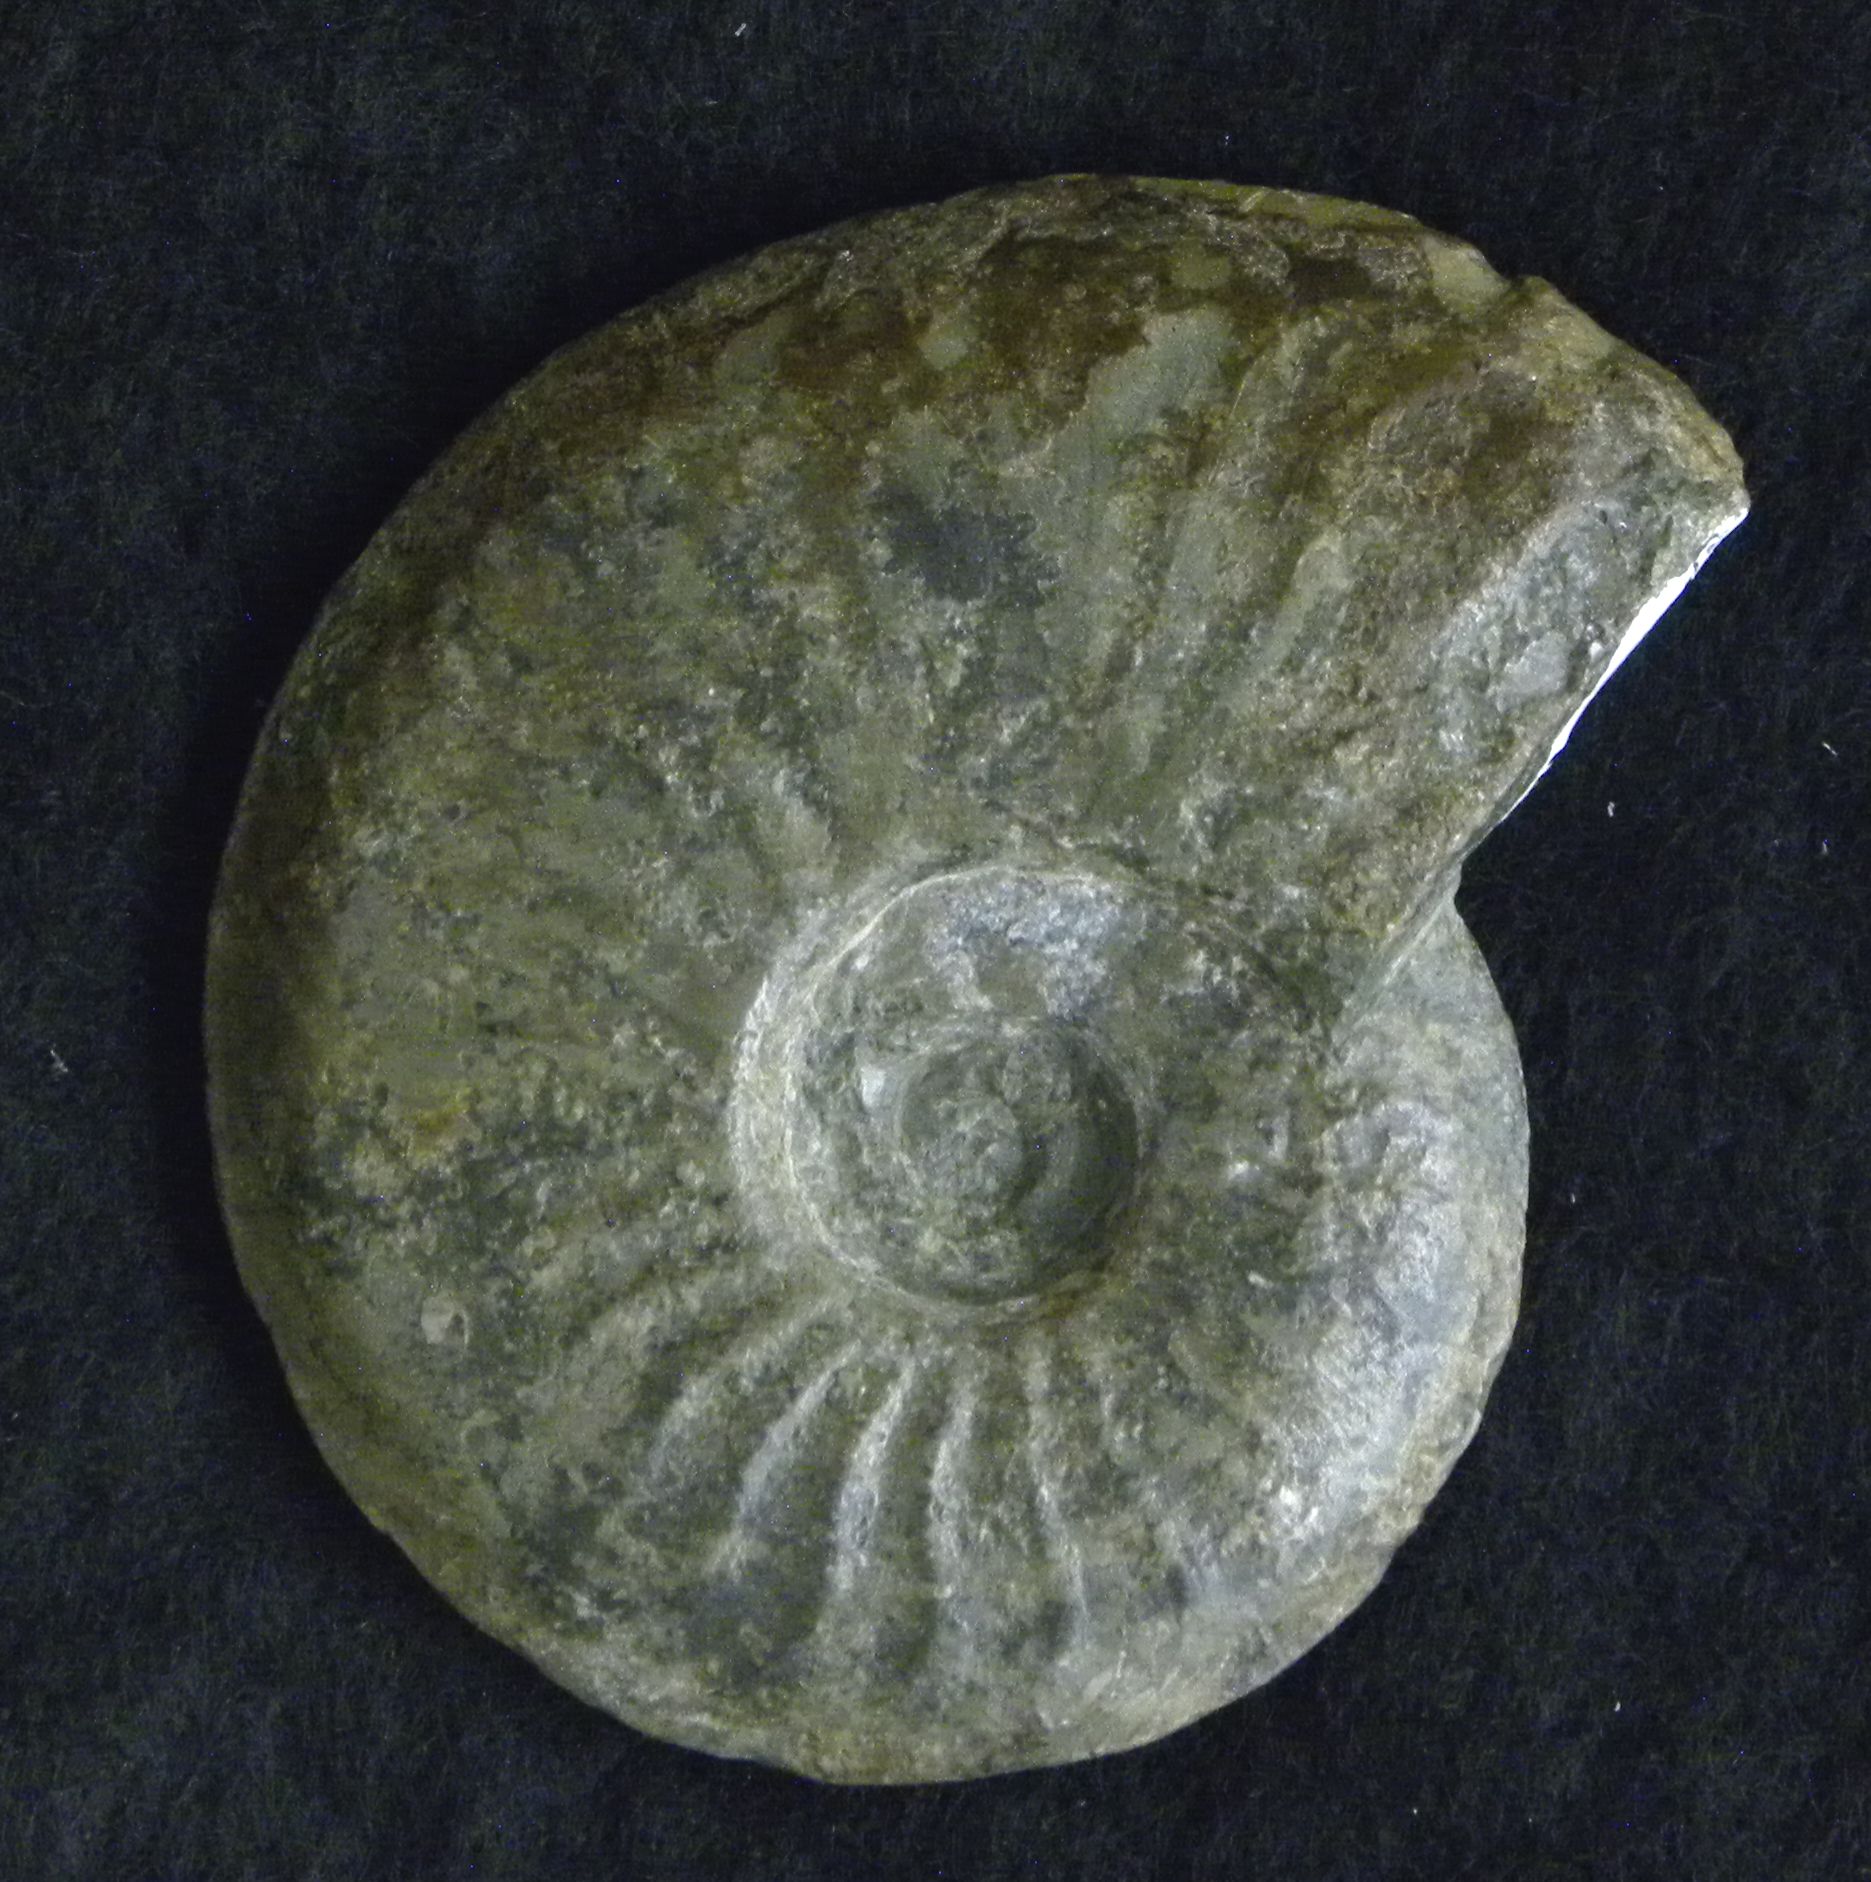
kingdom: Animalia
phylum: Mollusca
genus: Walkericeras
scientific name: Walkericeras
